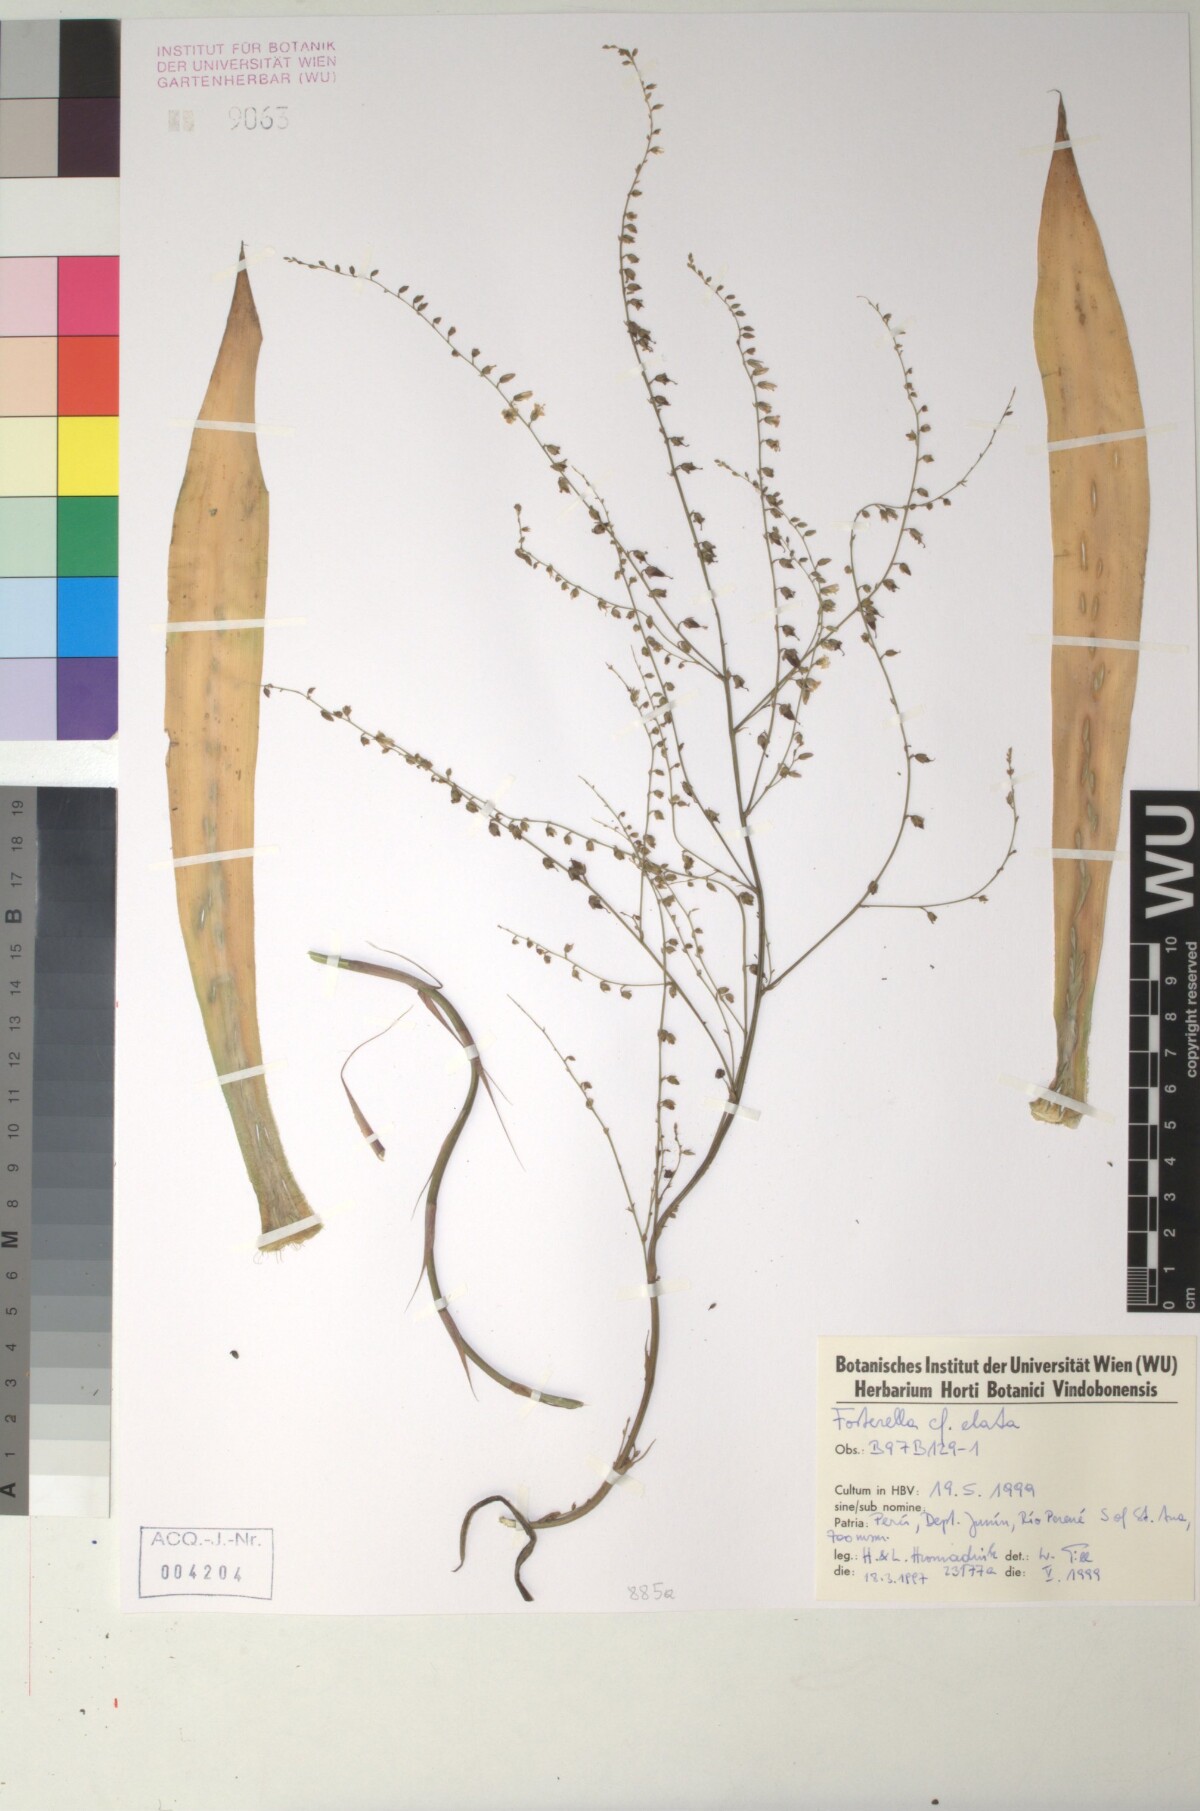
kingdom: Plantae
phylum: Tracheophyta
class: Liliopsida
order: Poales
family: Bromeliaceae
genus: Fosterella
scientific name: Fosterella schidosperma
